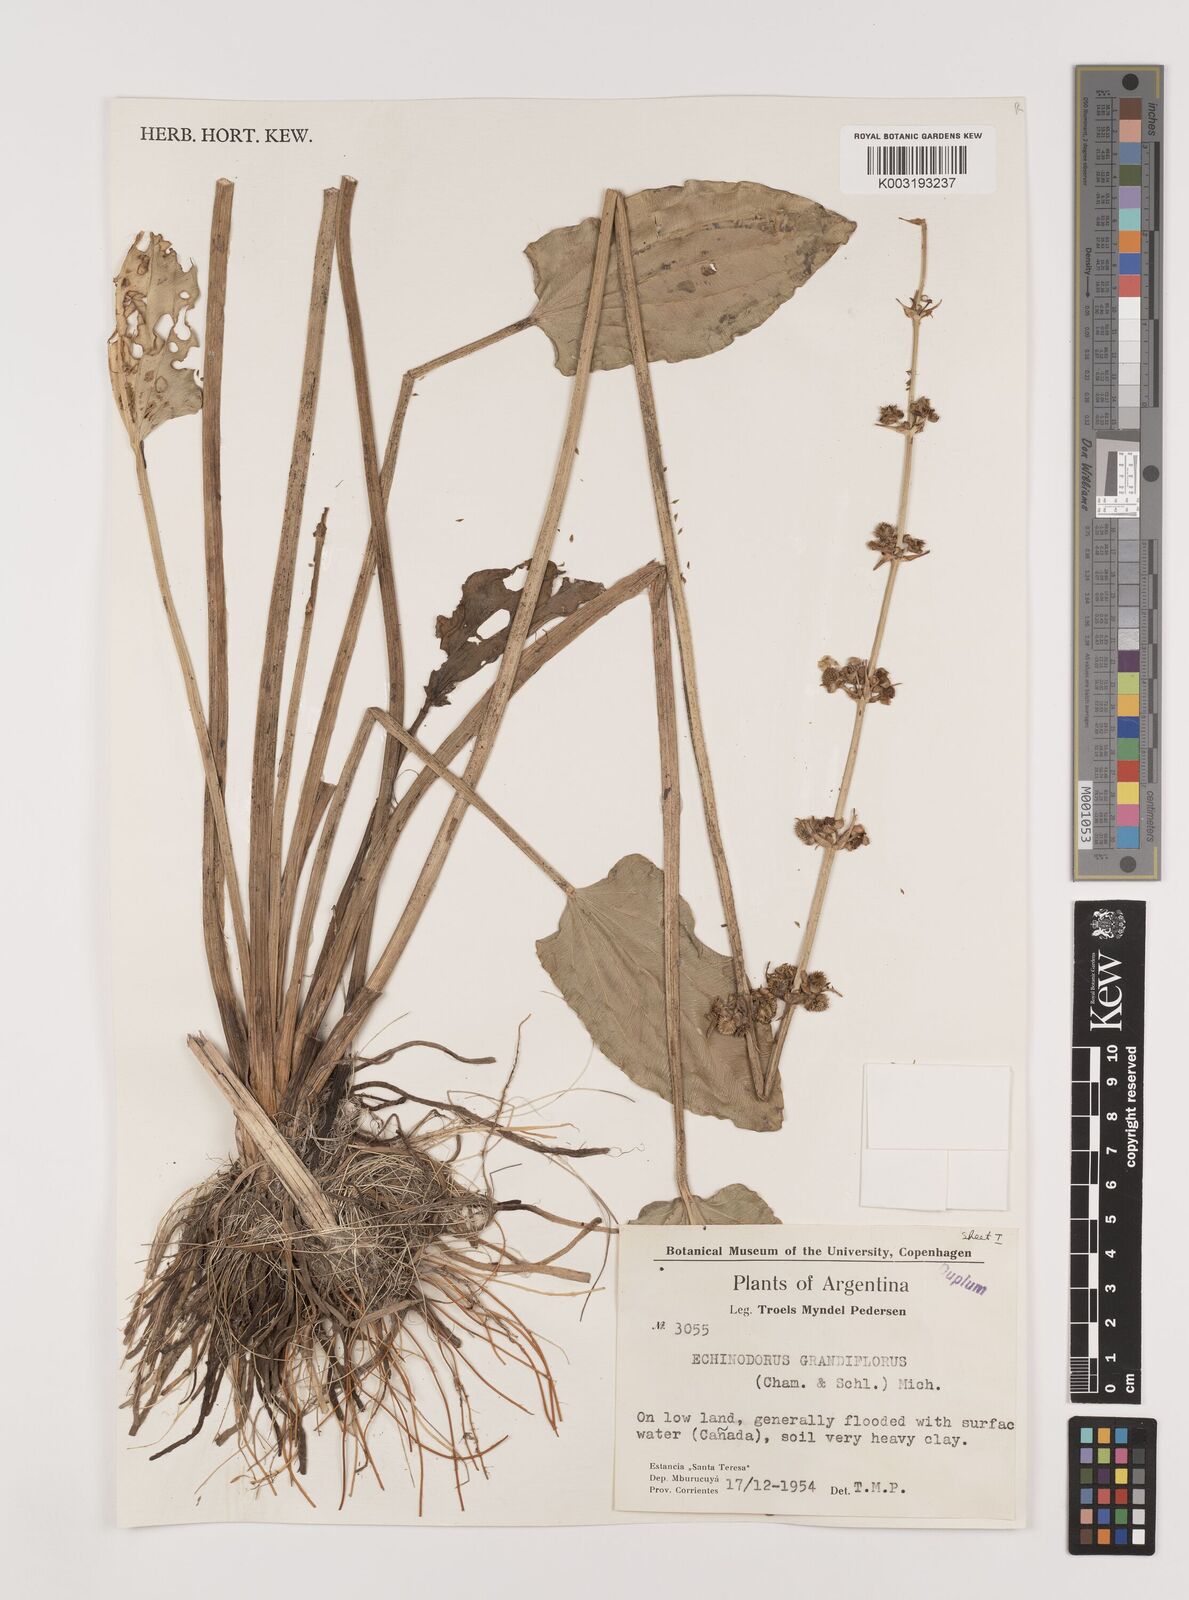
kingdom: Plantae
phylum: Tracheophyta
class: Liliopsida
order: Alismatales
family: Alismataceae
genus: Aquarius
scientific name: Aquarius longiscapus
